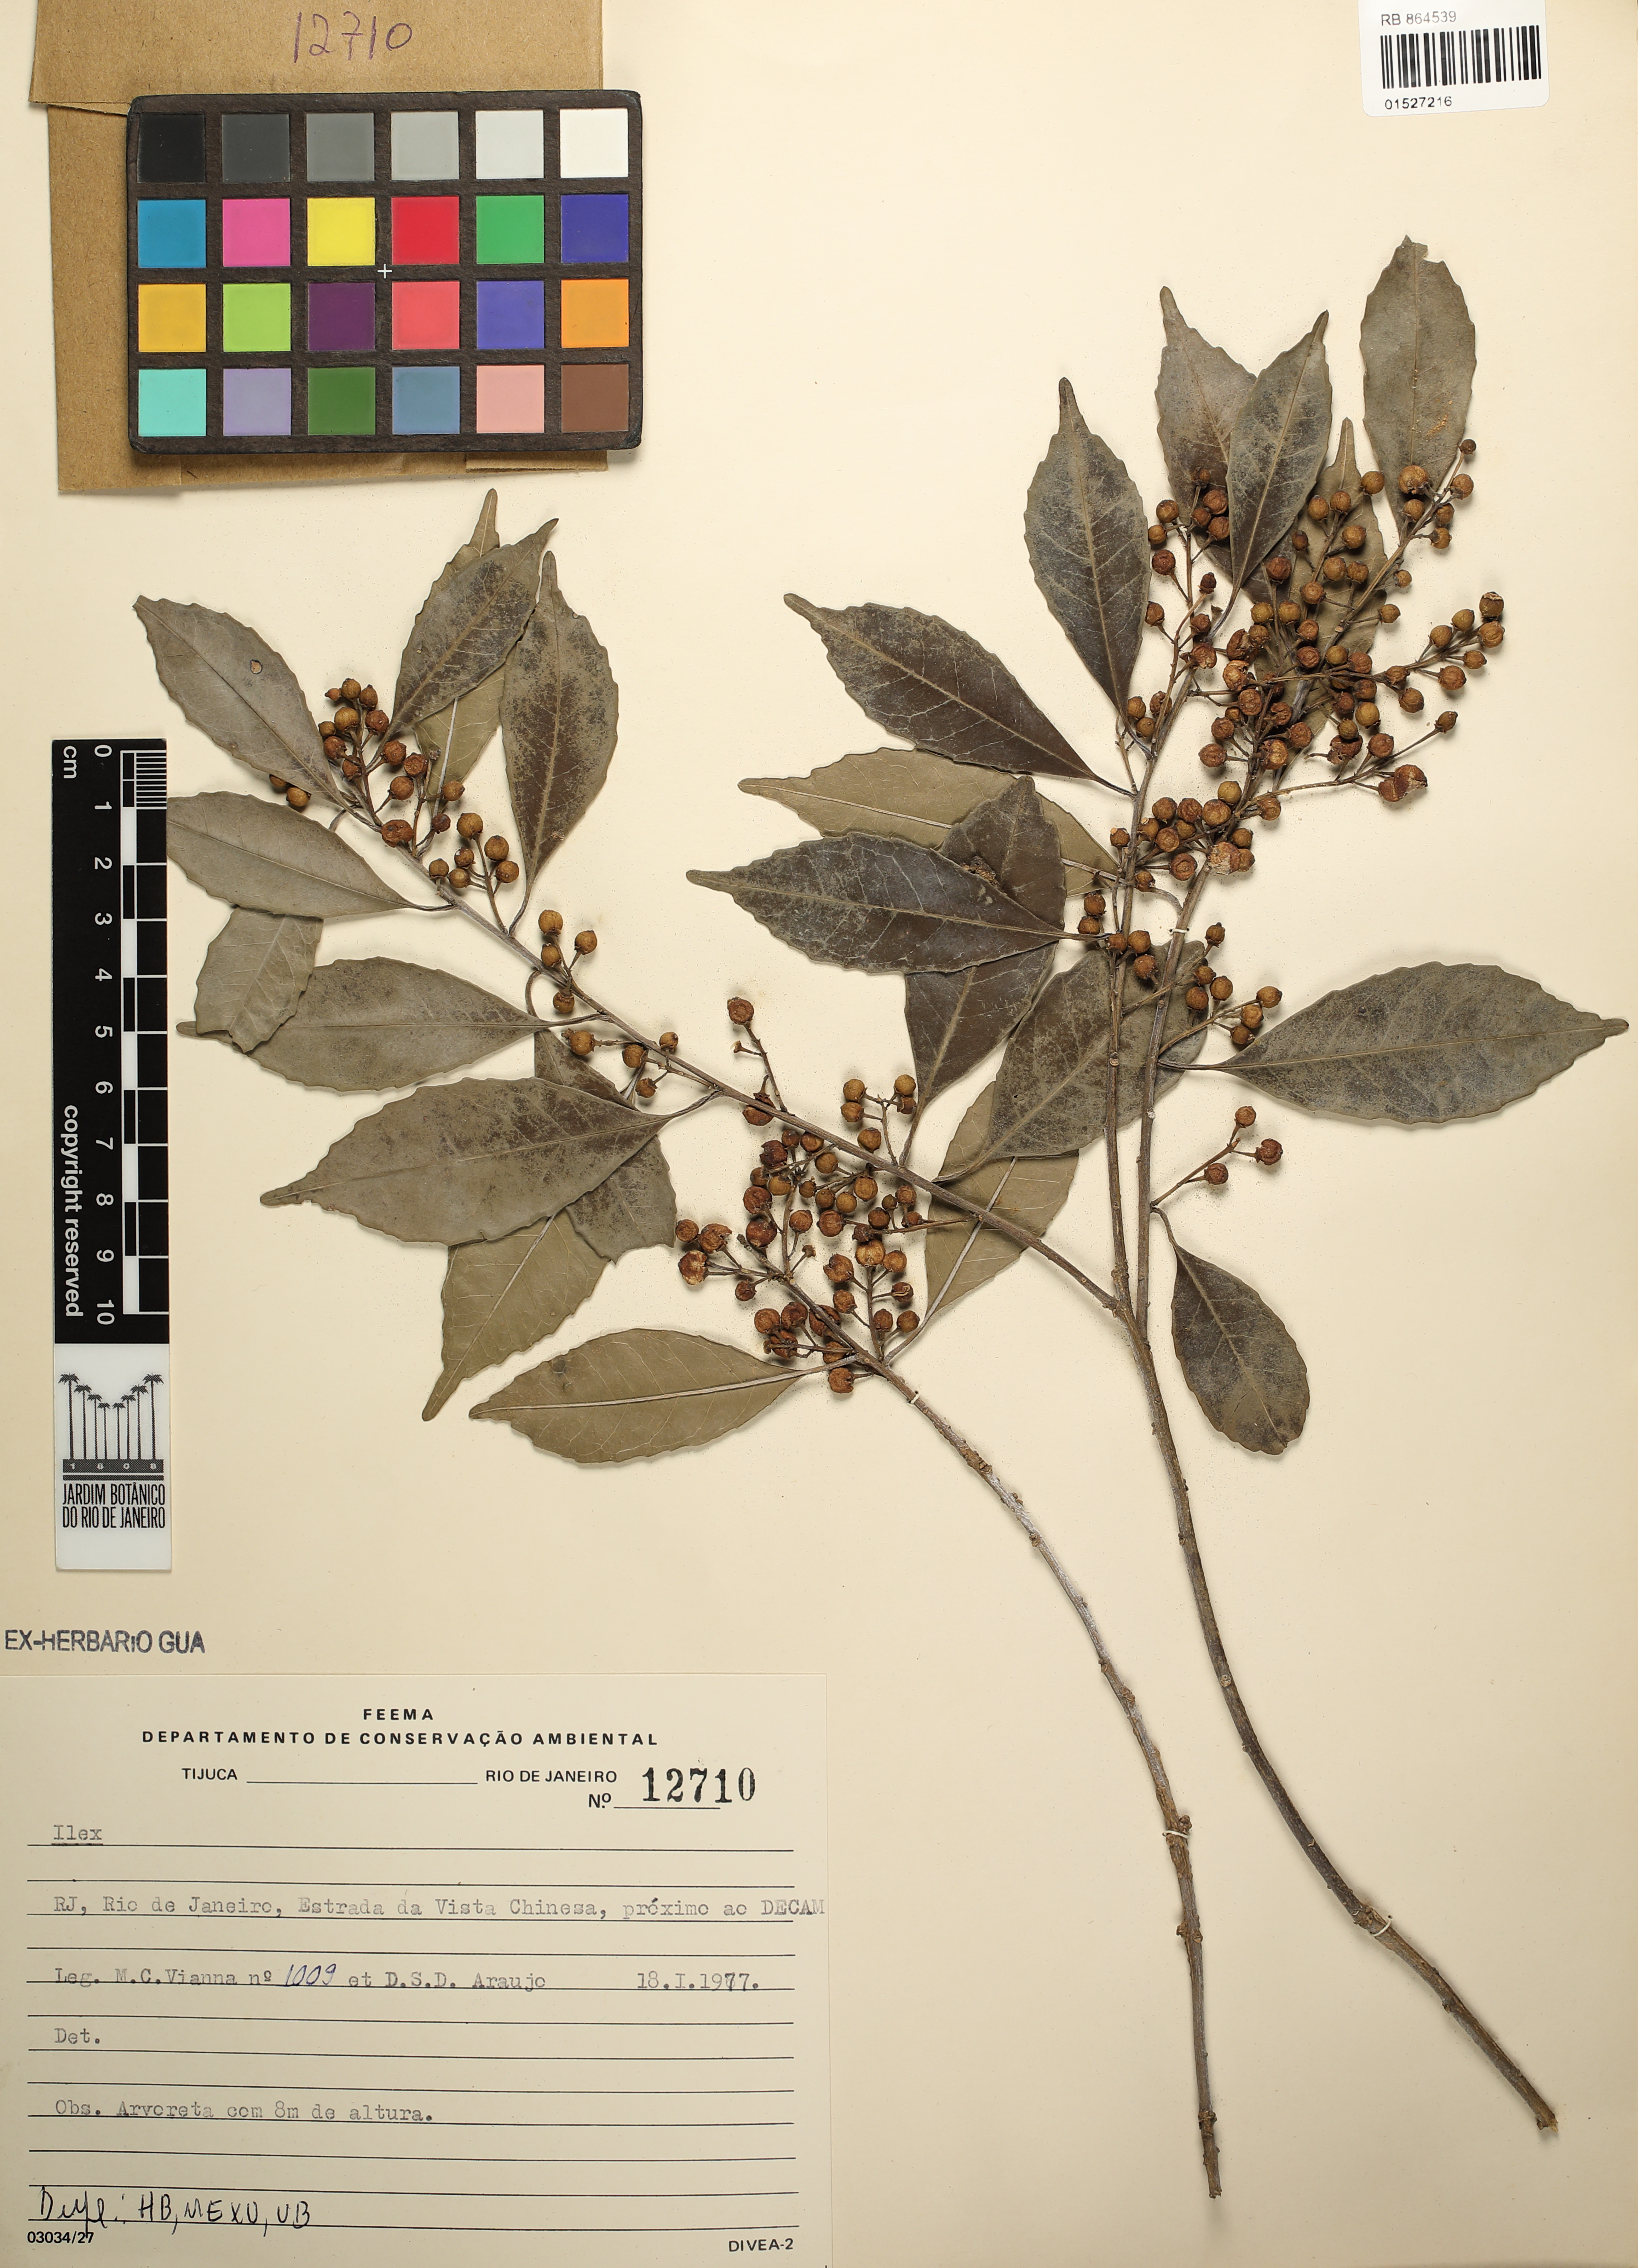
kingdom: Plantae
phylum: Tracheophyta
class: Magnoliopsida
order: Aquifoliales
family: Aquifoliaceae
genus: Ilex
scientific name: Ilex
